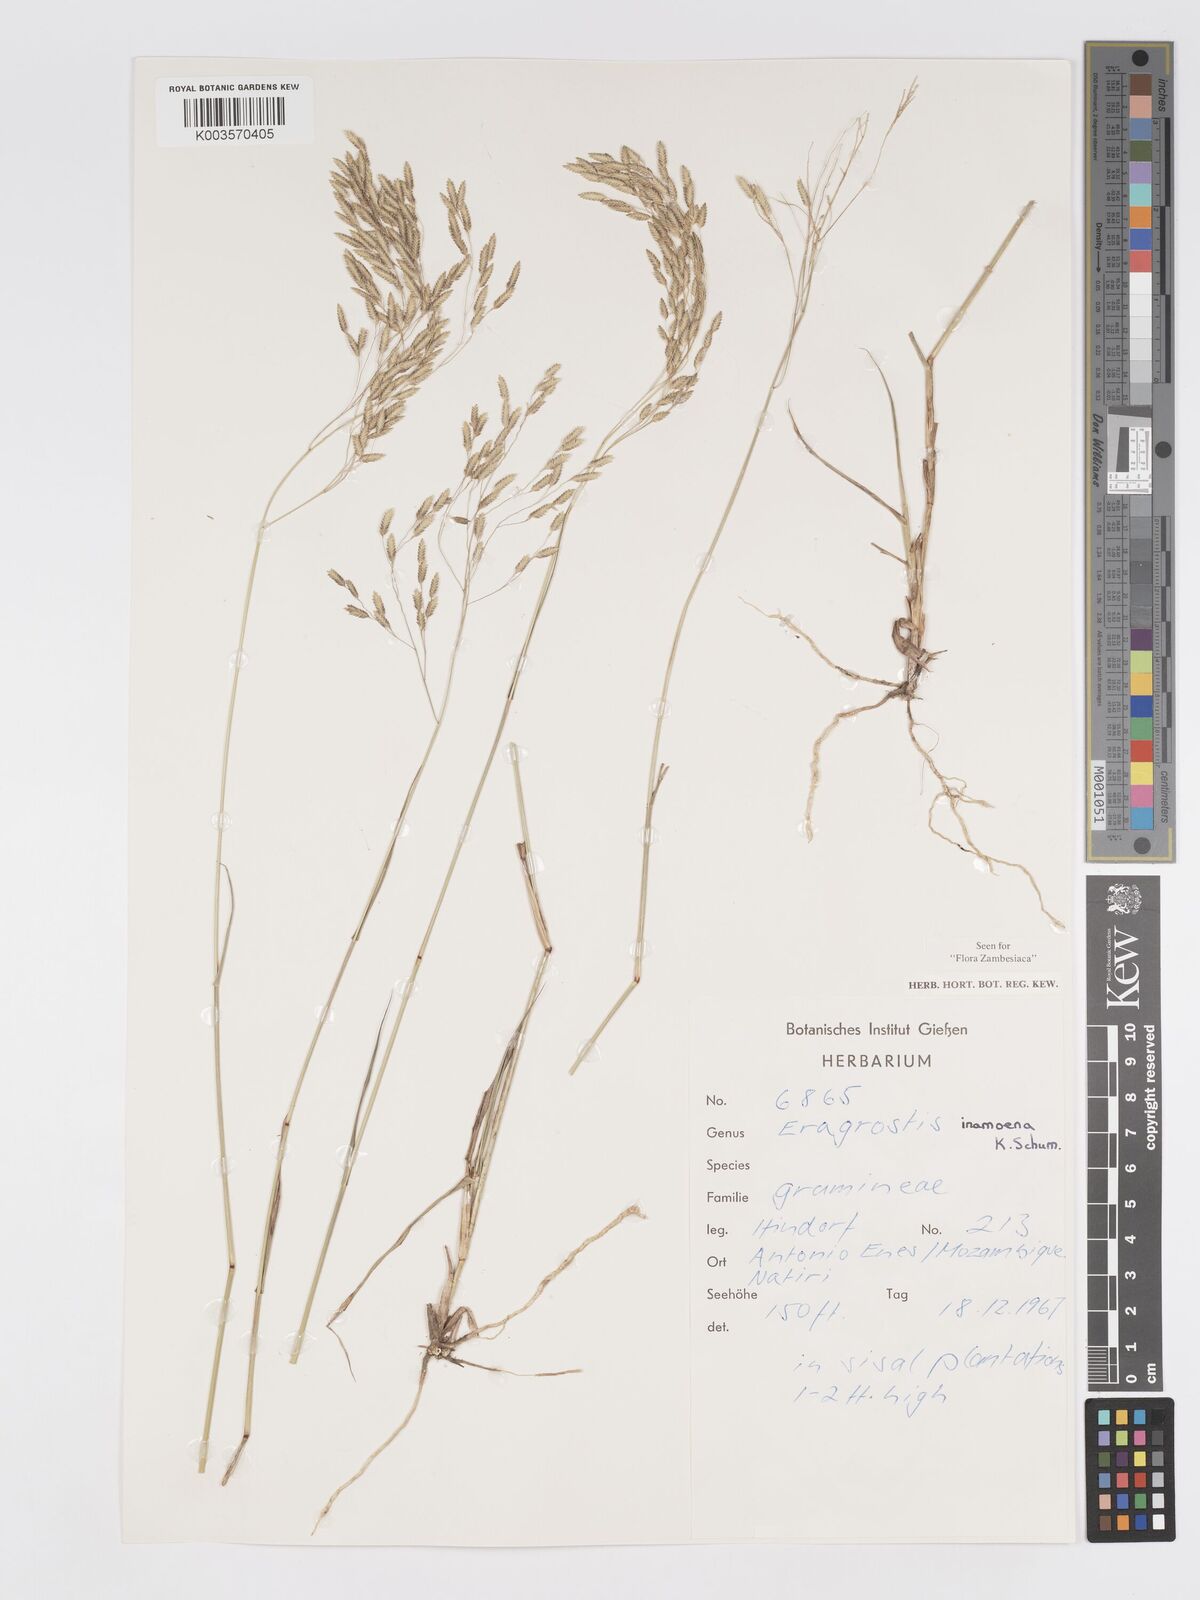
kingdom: Plantae
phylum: Tracheophyta
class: Liliopsida
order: Poales
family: Poaceae
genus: Eragrostis
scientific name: Eragrostis inamoena
